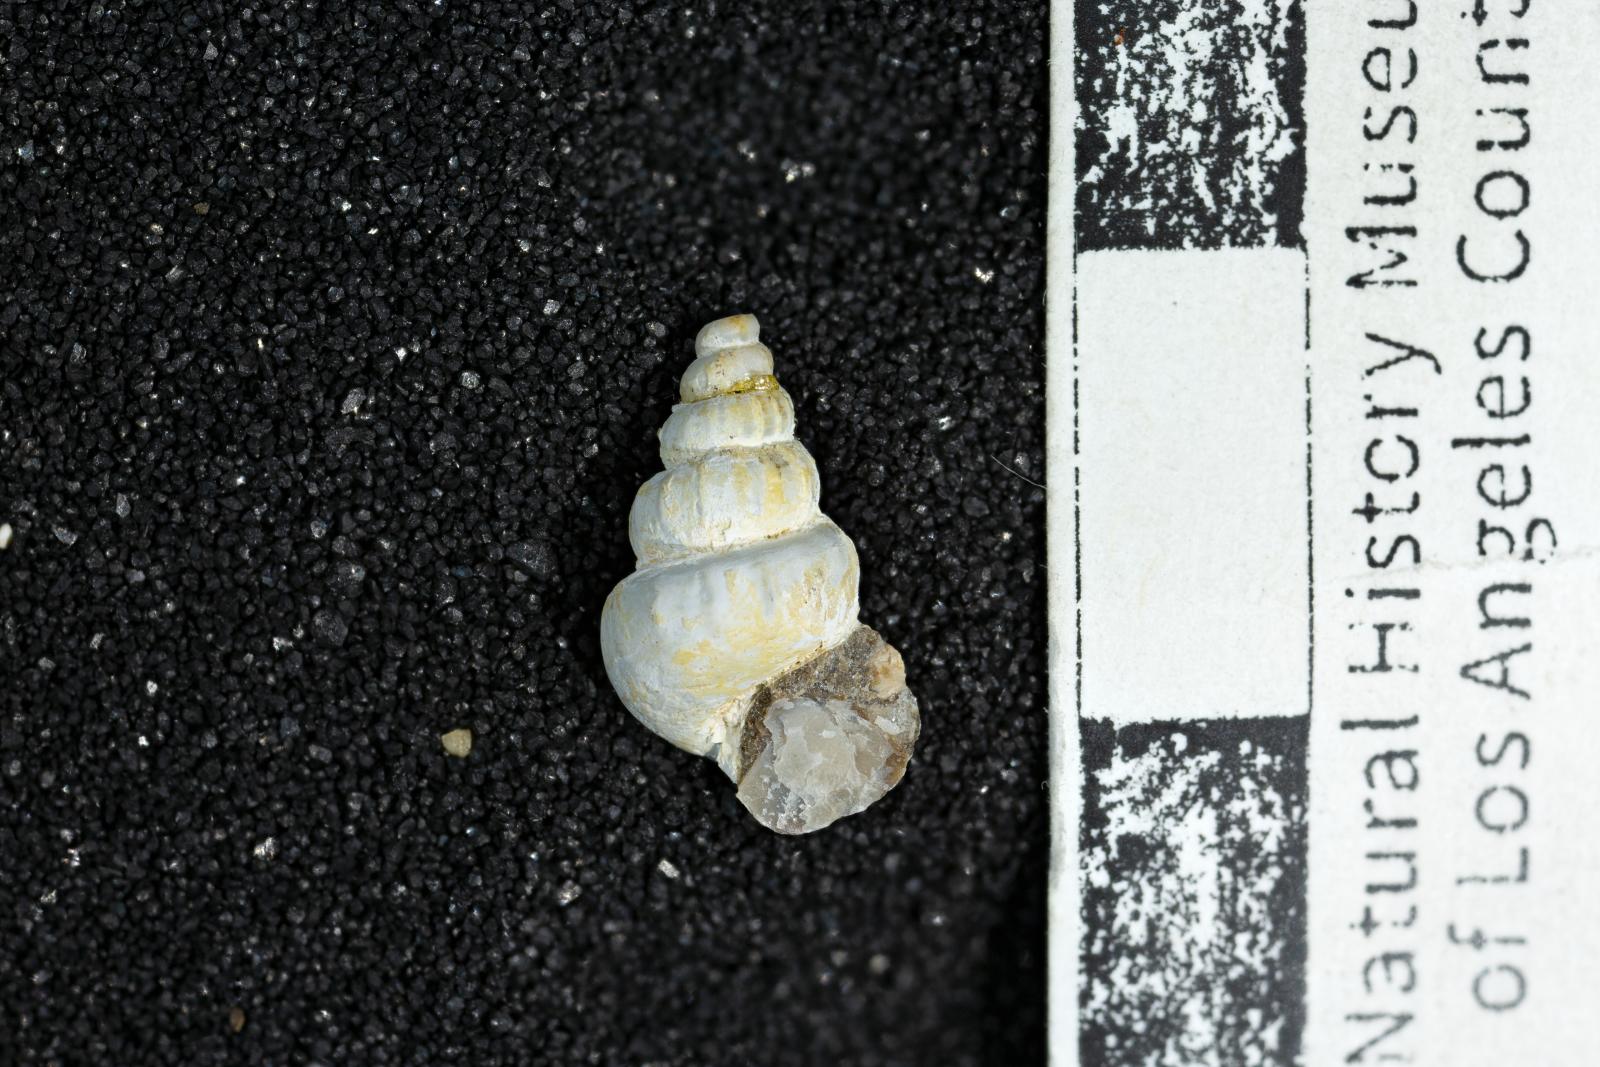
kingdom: Animalia
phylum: Mollusca
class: Gastropoda
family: Cerithiidae
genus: Cerithium
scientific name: Cerithium lallierianum
